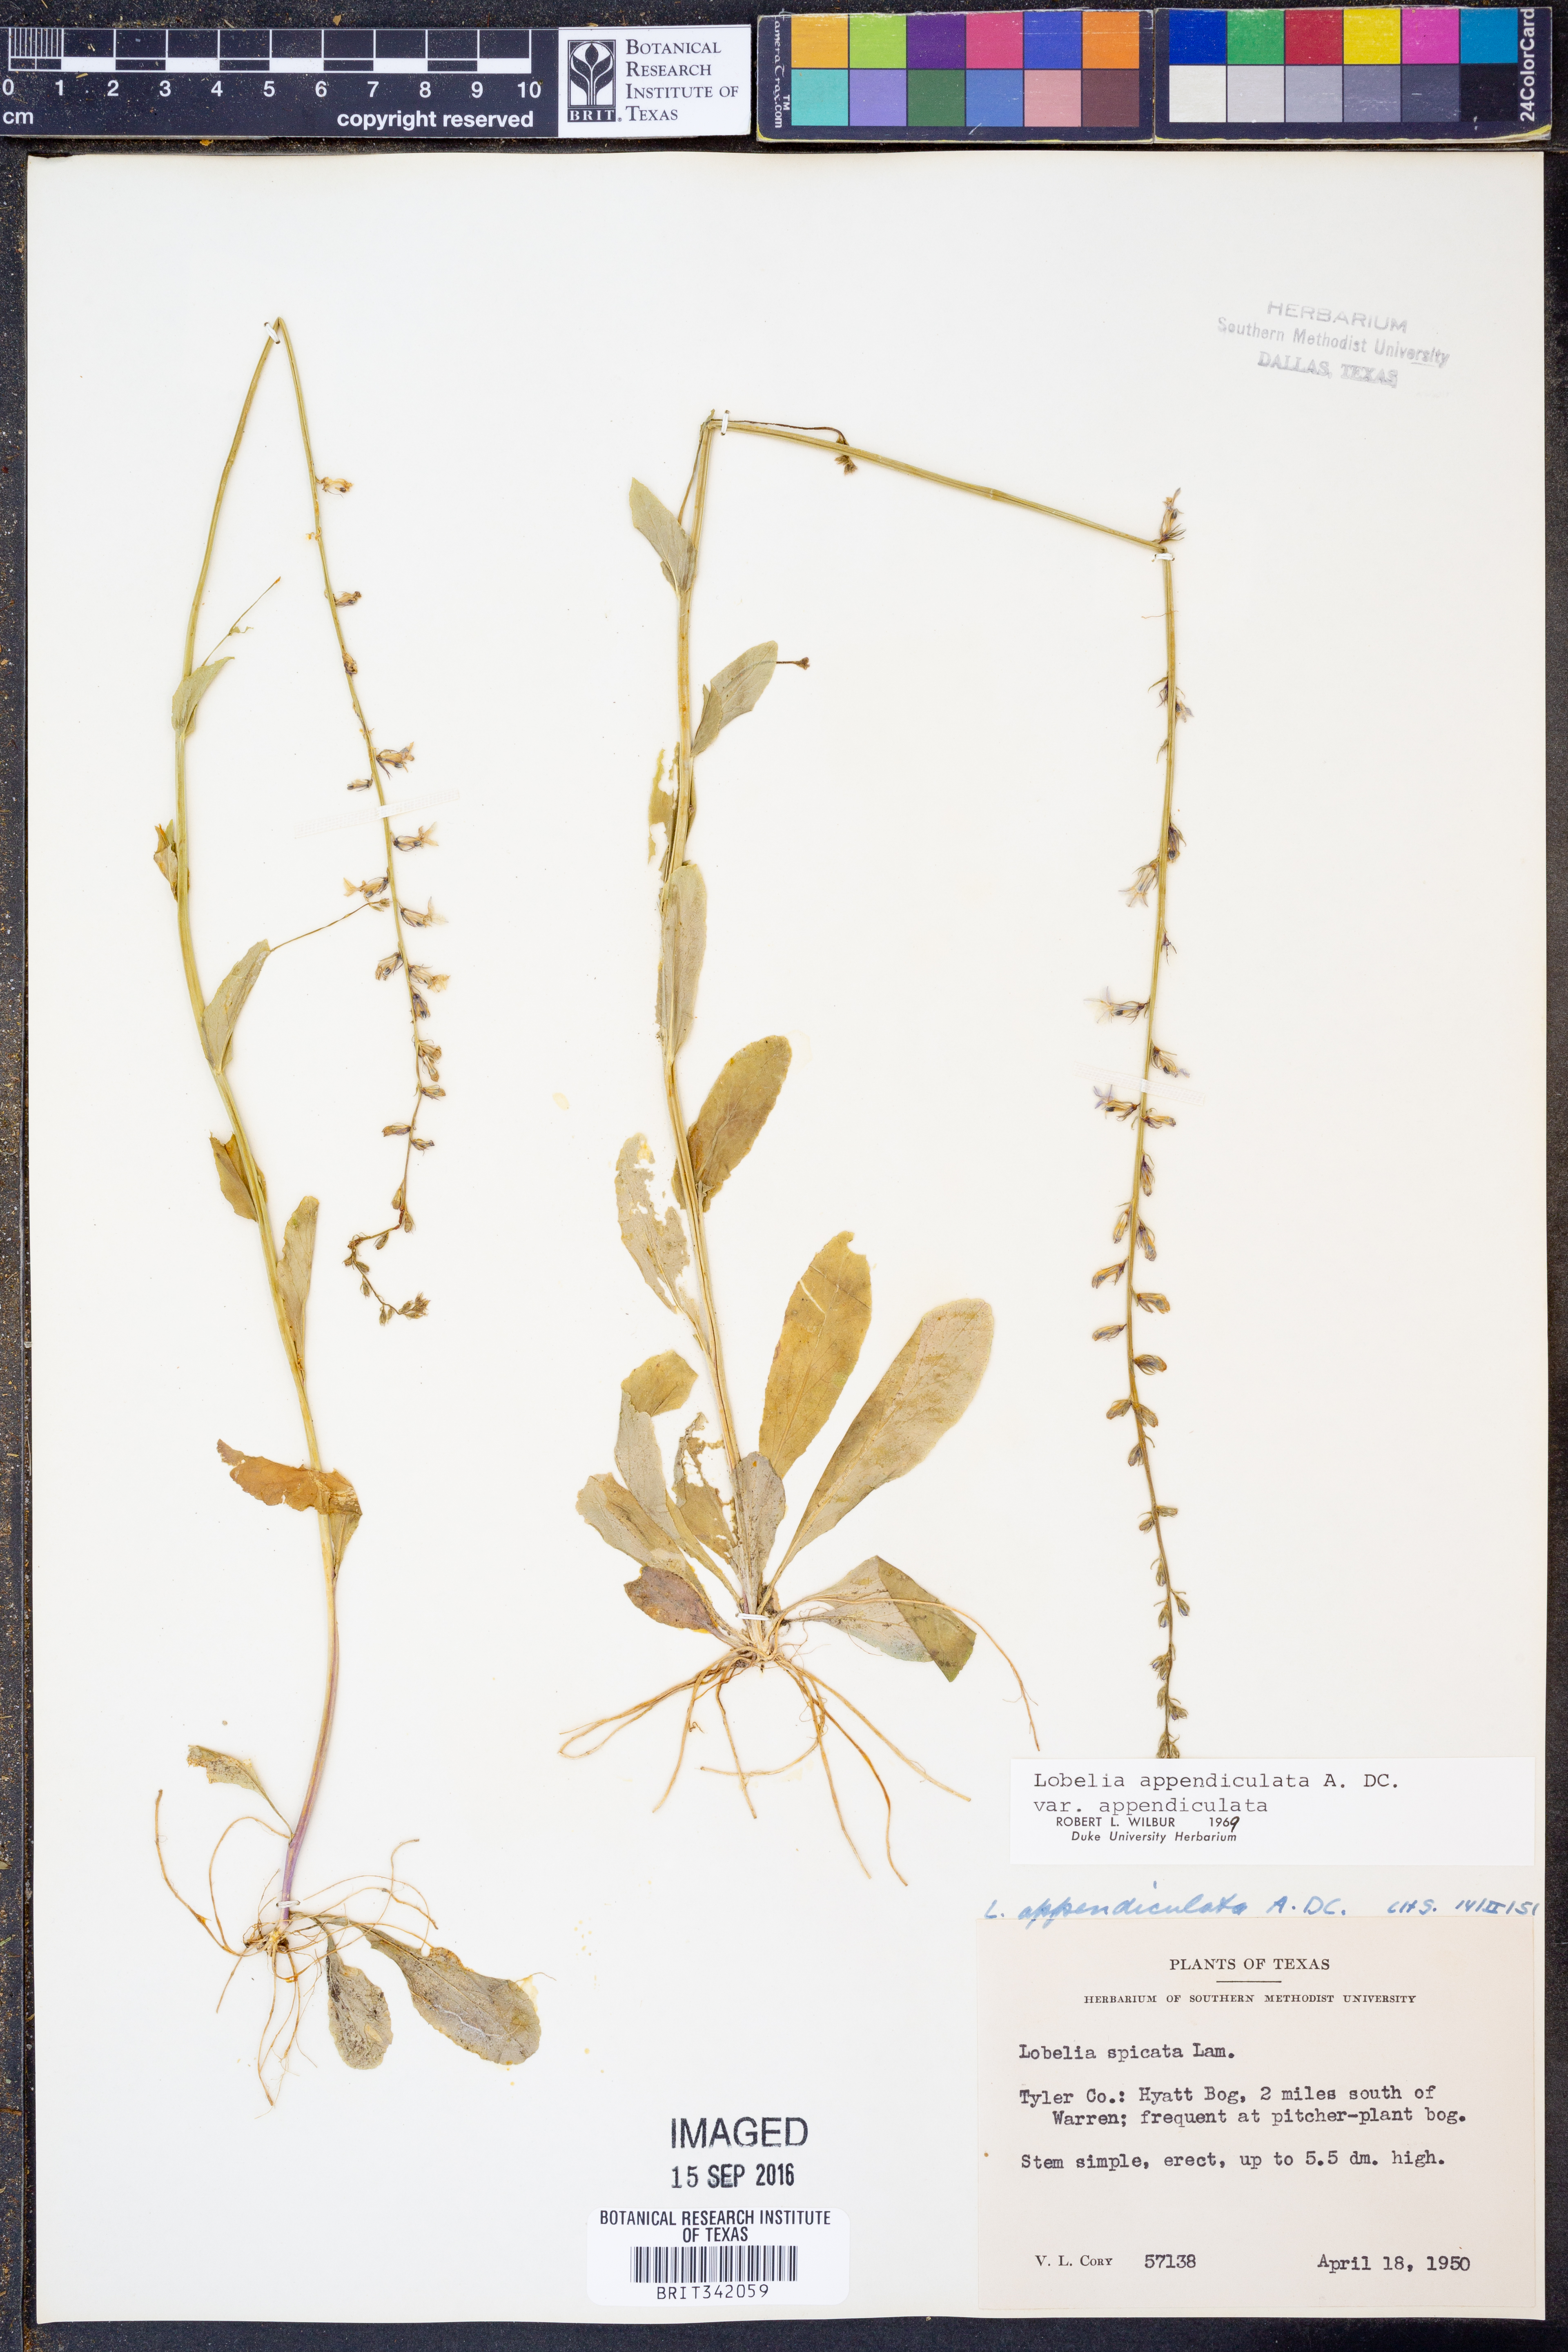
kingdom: Plantae
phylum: Tracheophyta
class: Magnoliopsida
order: Asterales
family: Campanulaceae
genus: Lobelia
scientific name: Lobelia appendiculata
